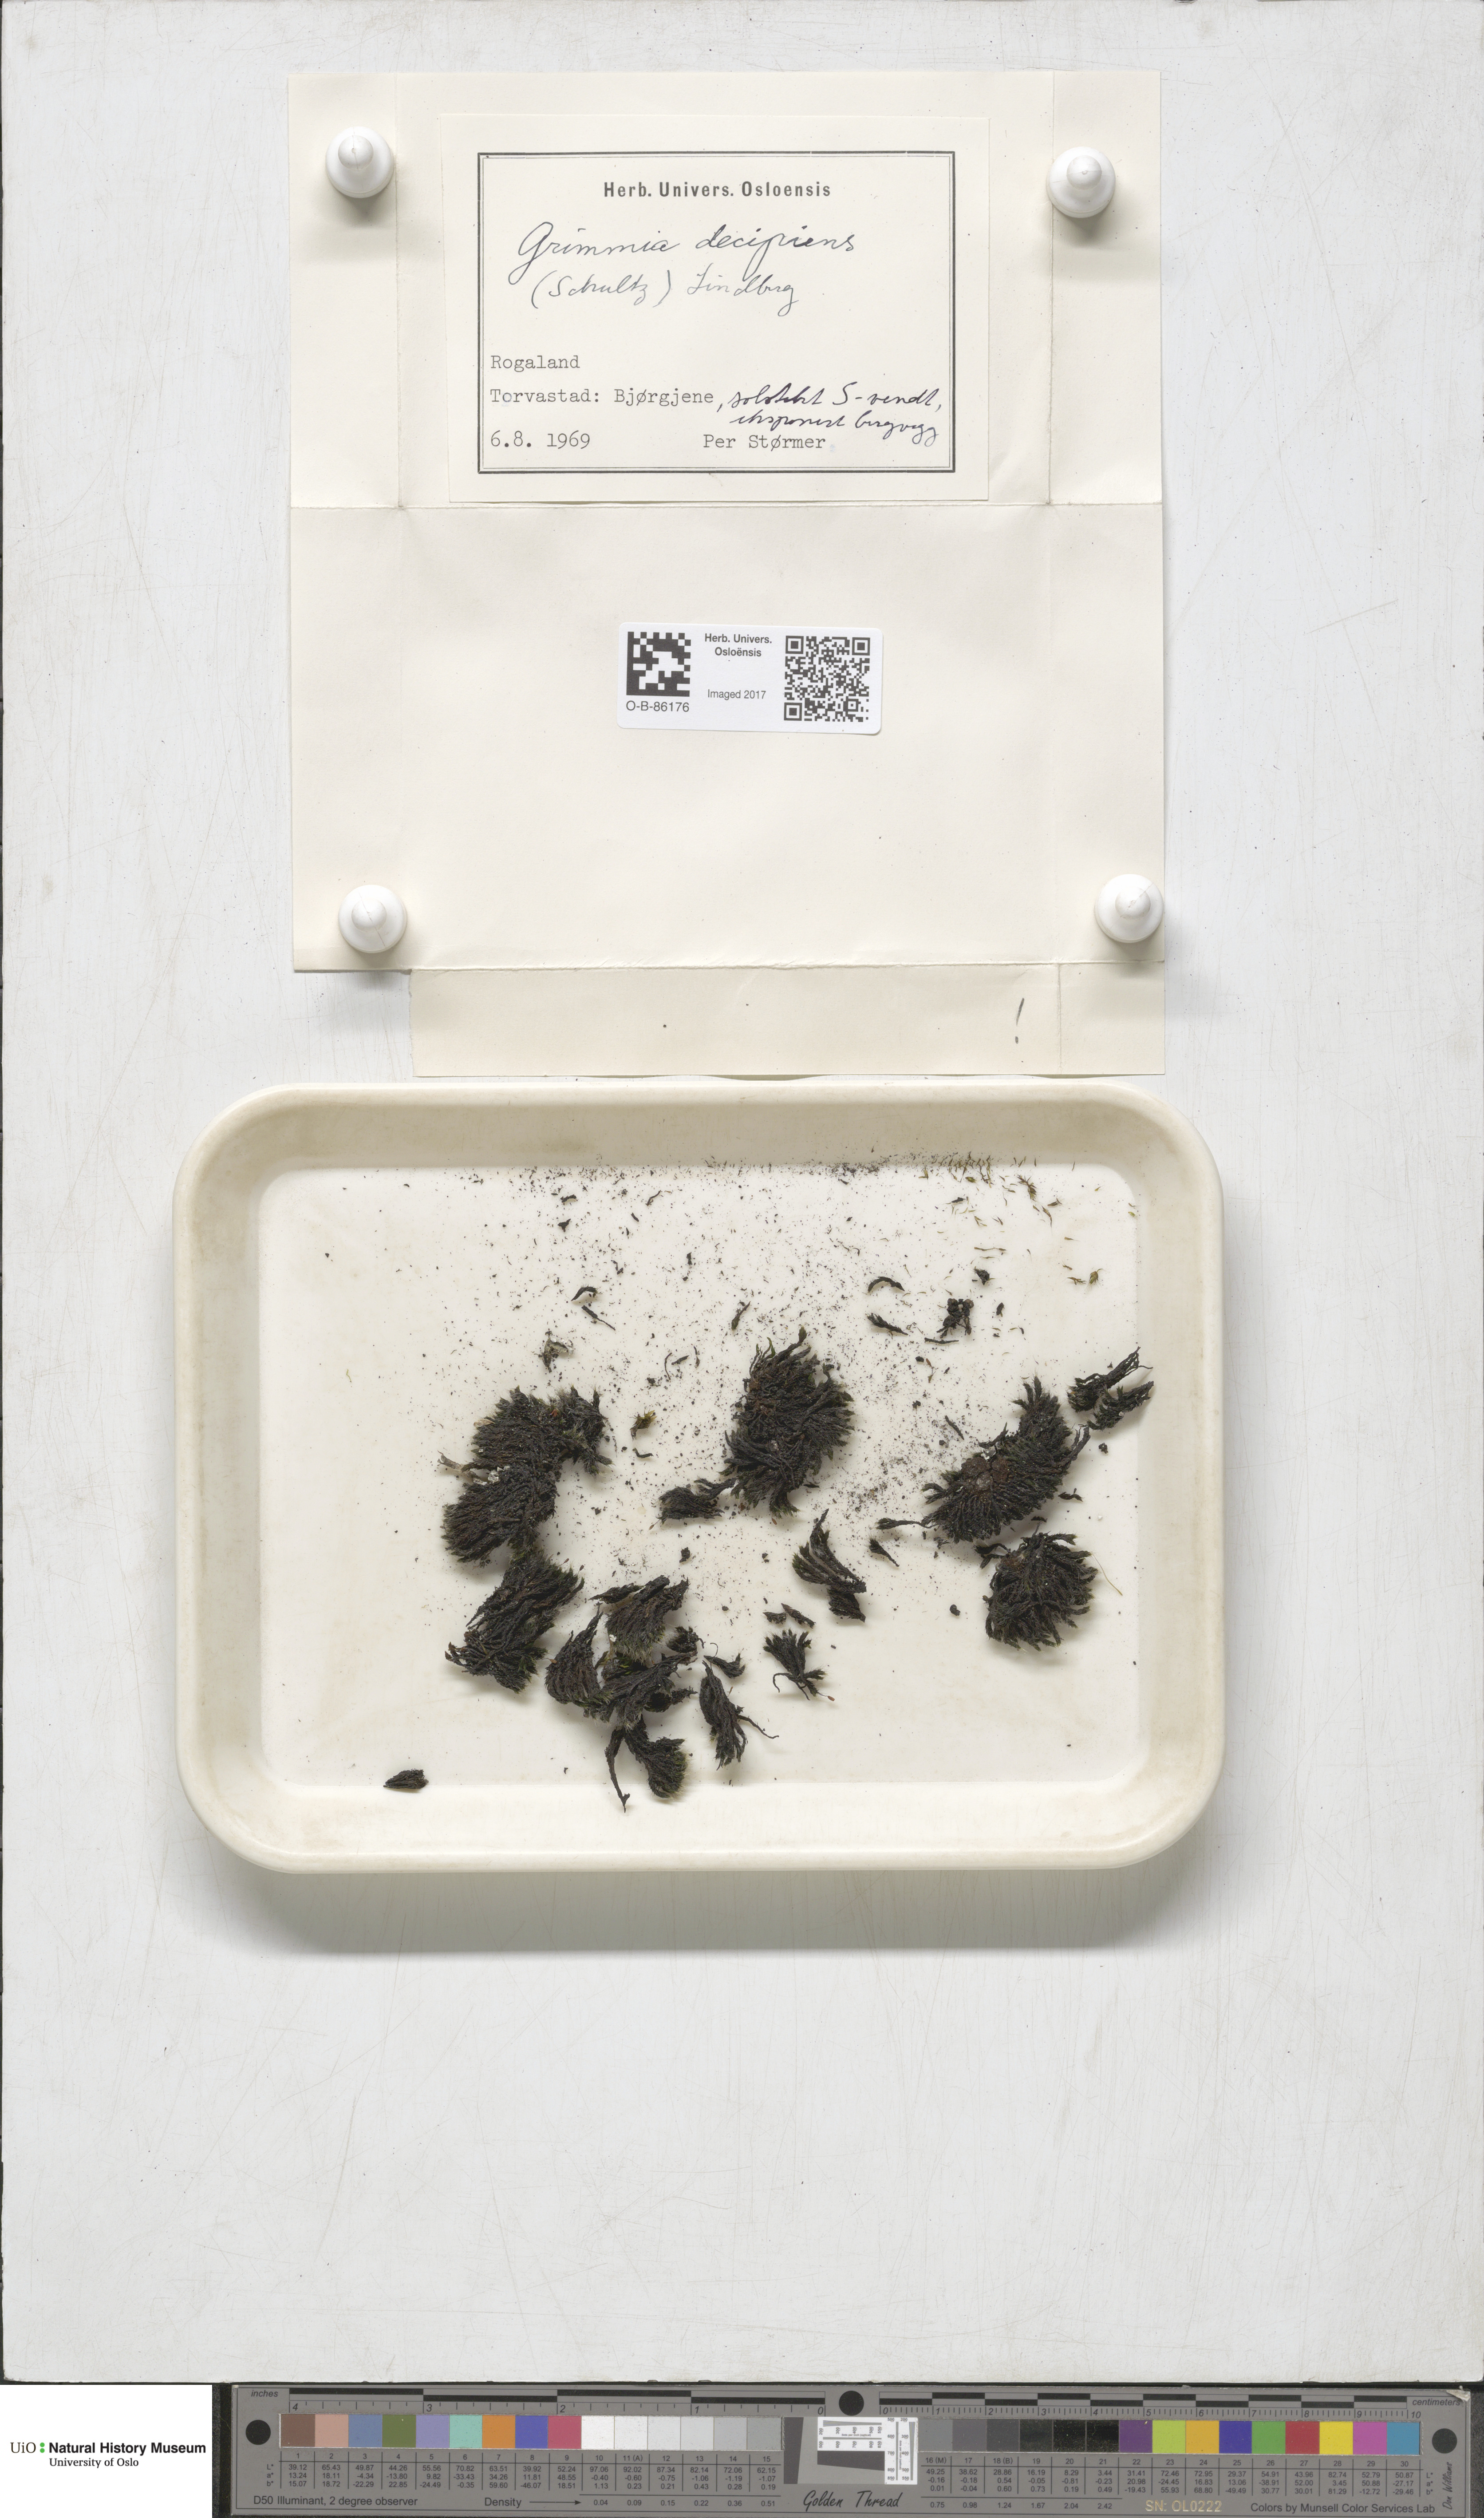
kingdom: Plantae
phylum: Bryophyta
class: Bryopsida
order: Grimmiales
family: Grimmiaceae
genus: Grimmia
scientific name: Grimmia decipiens
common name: Great grimmia
